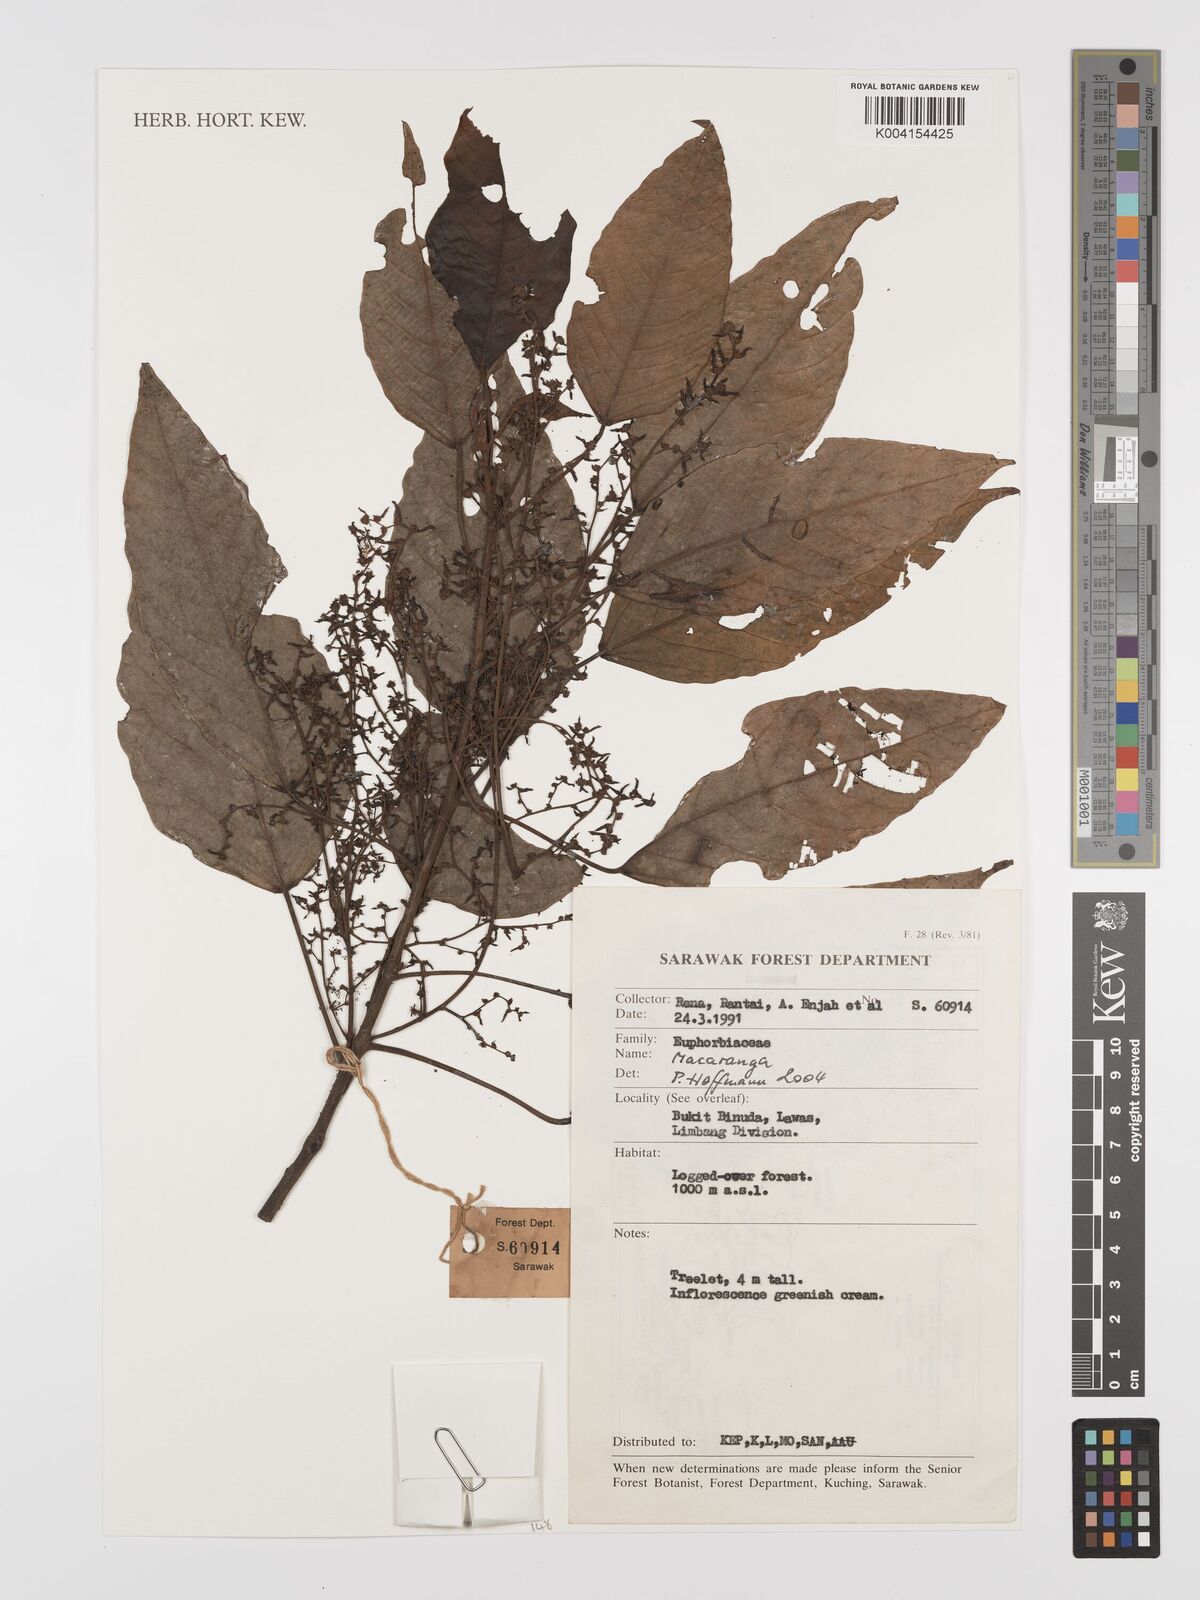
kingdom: Plantae
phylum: Tracheophyta
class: Magnoliopsida
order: Malpighiales
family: Euphorbiaceae
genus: Macaranga
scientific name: Macaranga
